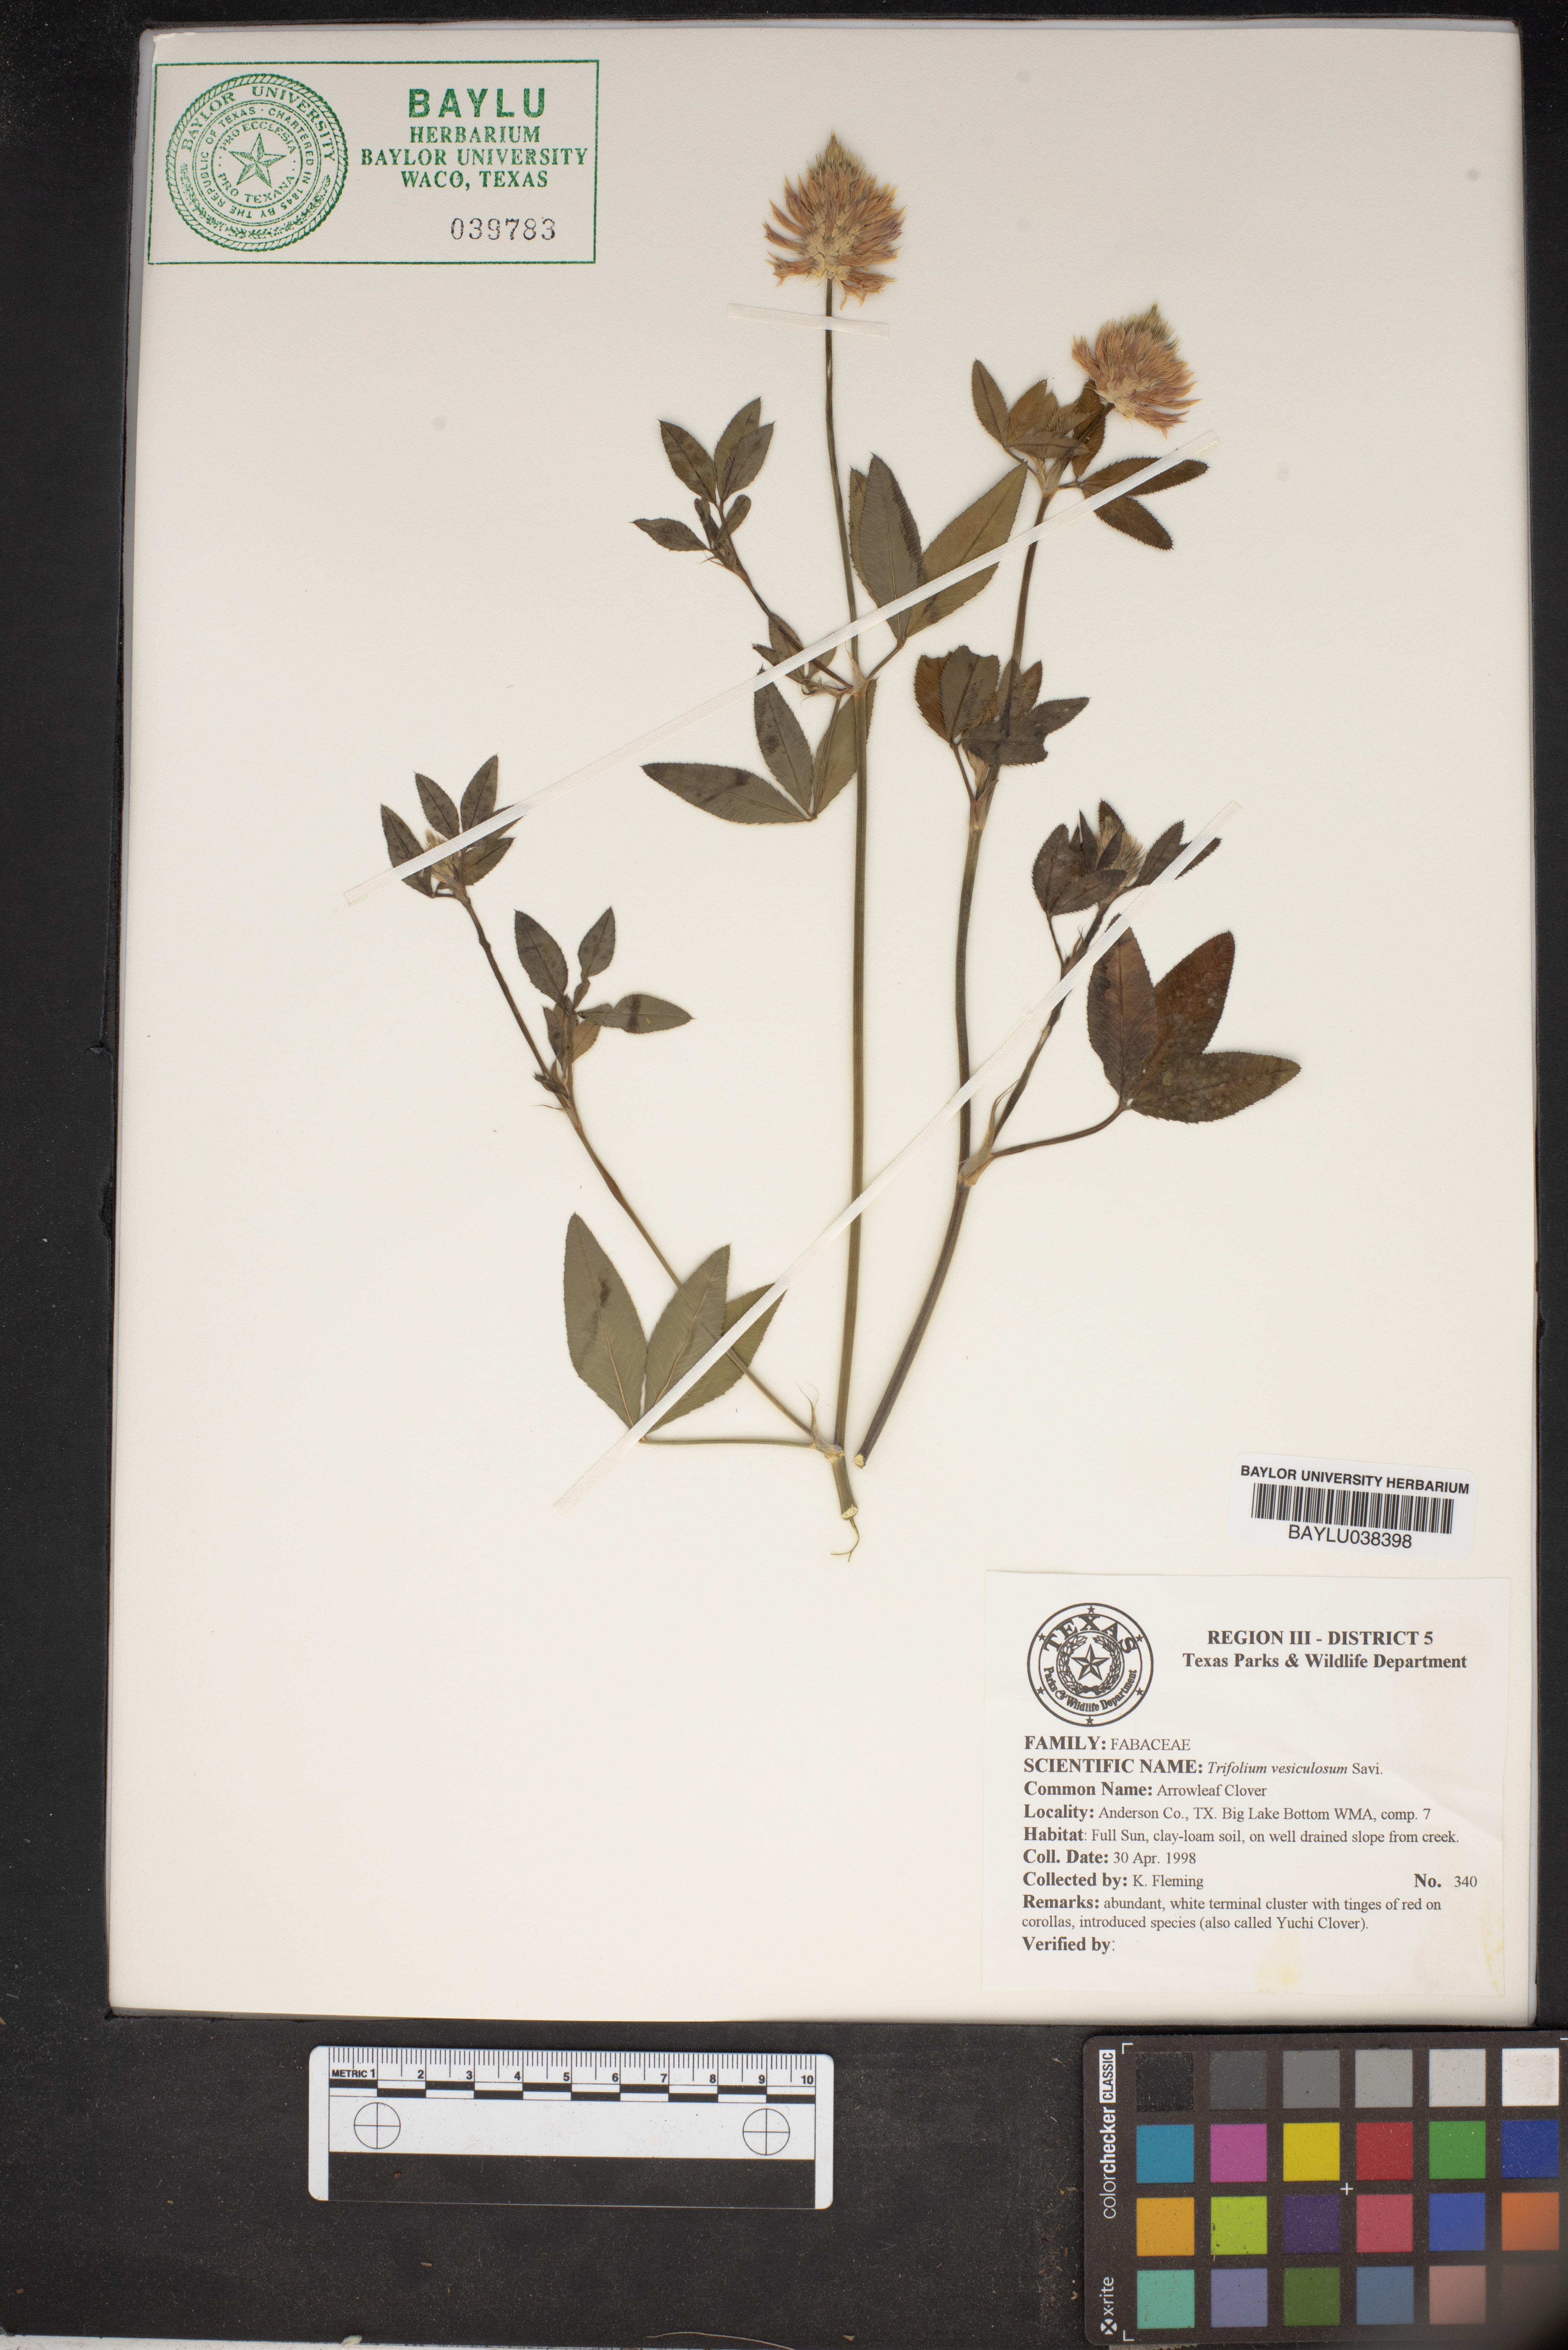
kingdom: Plantae
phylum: Tracheophyta
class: Magnoliopsida
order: Fabales
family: Fabaceae
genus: Trifolium
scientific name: Trifolium vesiculosum
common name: Arrowleaf clover
